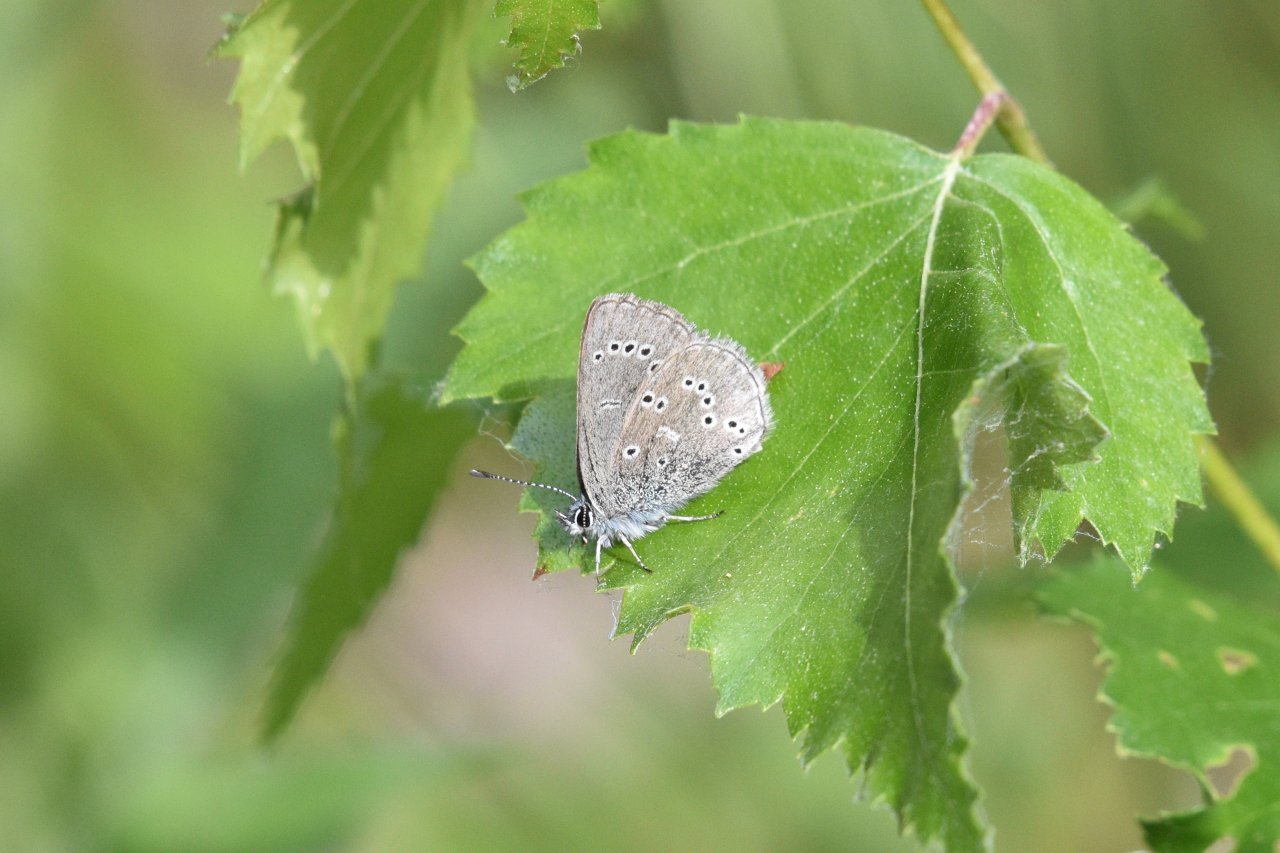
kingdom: Animalia
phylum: Arthropoda
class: Insecta
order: Lepidoptera
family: Lycaenidae
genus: Glaucopsyche
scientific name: Glaucopsyche lygdamus
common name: Silvery Blue
